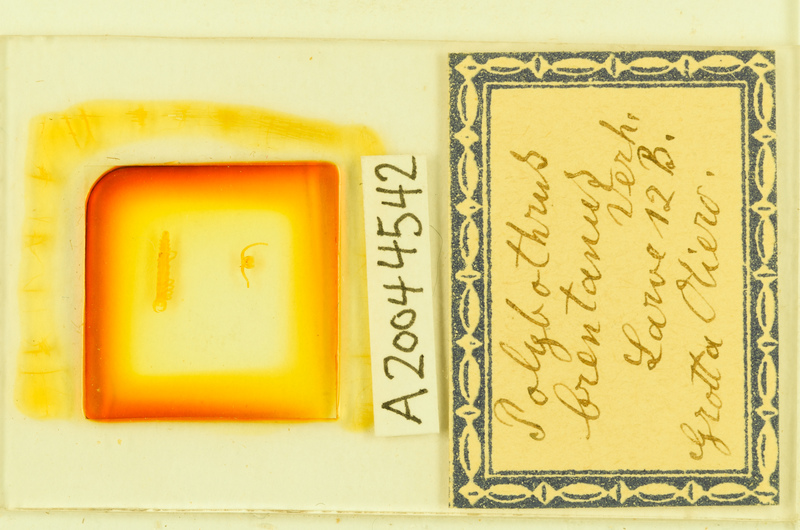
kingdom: Animalia
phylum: Arthropoda
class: Chilopoda
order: Lithobiomorpha
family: Lithobiidae
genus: Eupolybothrus
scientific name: Eupolybothrus tridentinus
